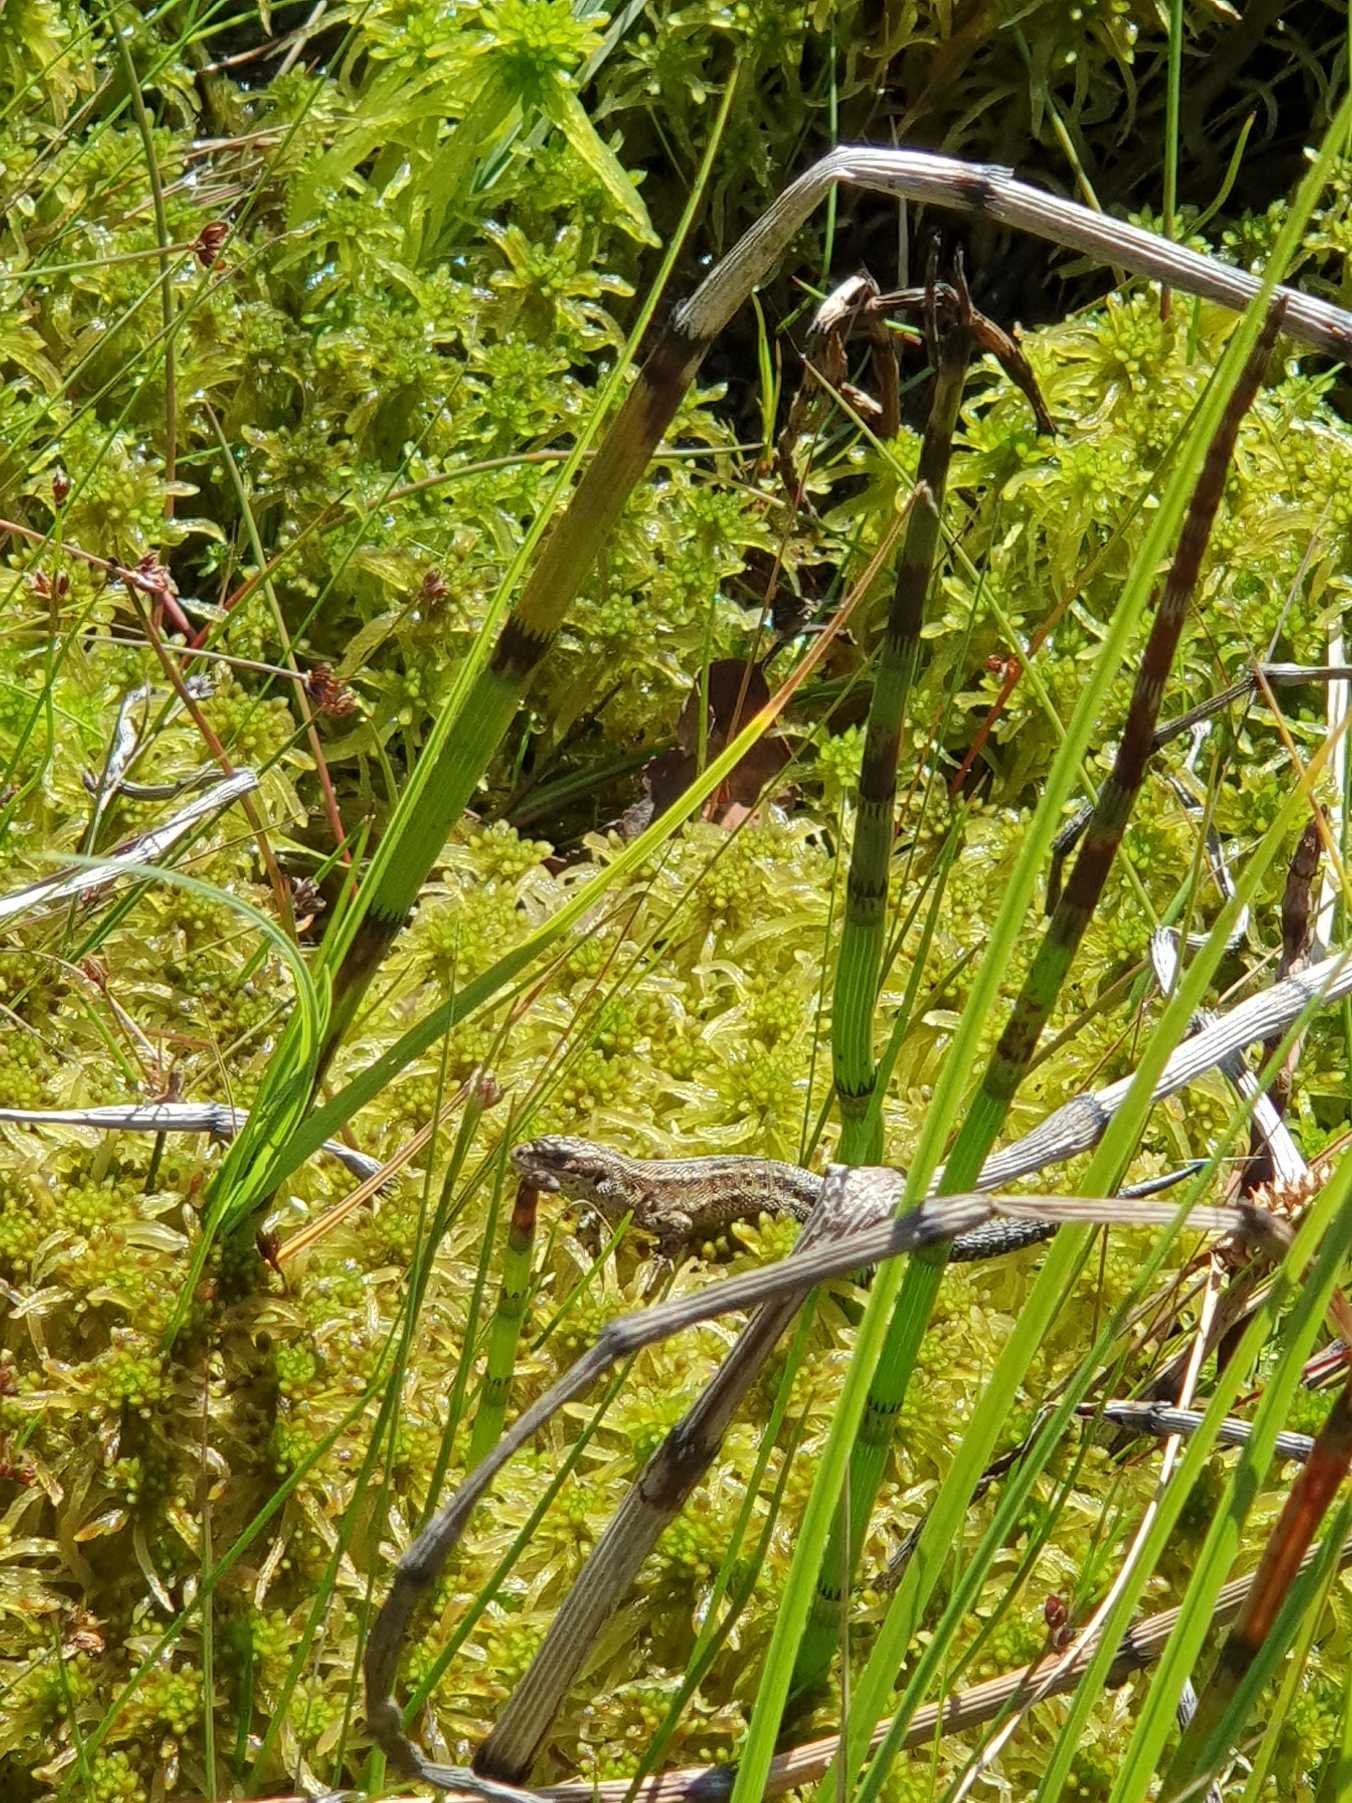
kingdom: Animalia
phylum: Chordata
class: Squamata
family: Lacertidae
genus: Zootoca
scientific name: Zootoca vivipara
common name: Skovfirben
